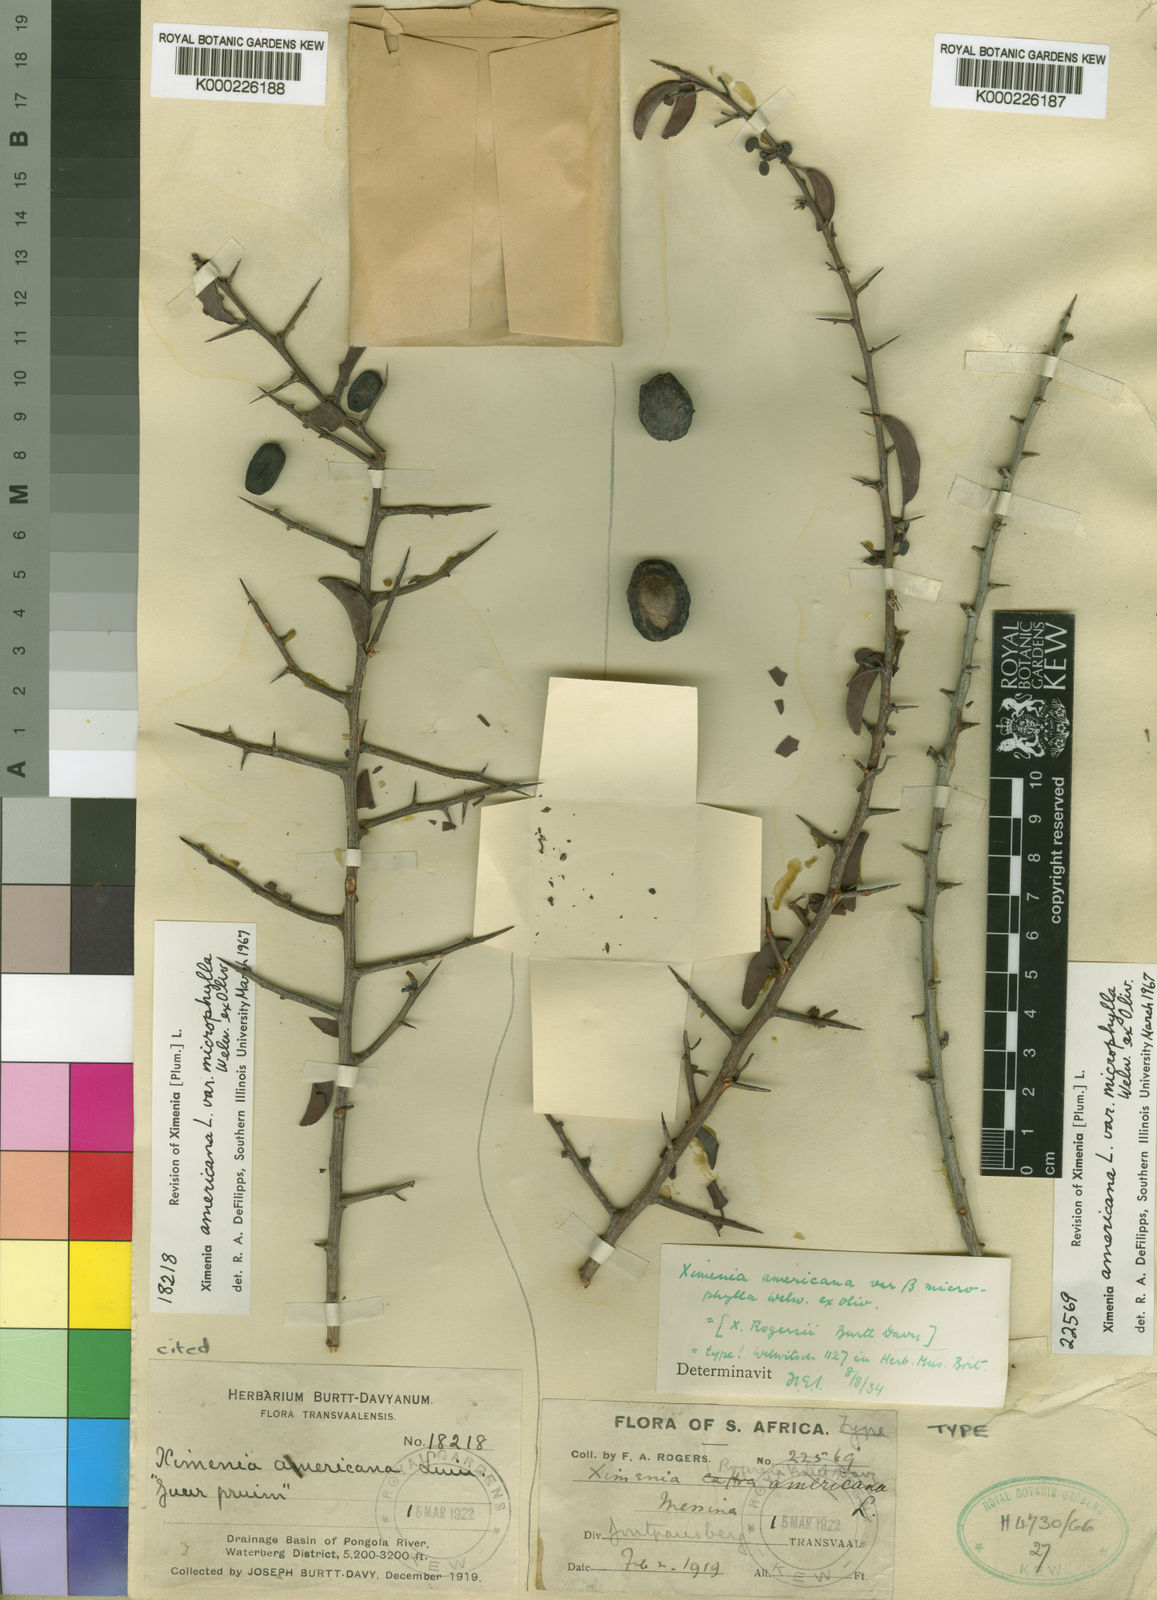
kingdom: Plantae
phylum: Tracheophyta
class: Magnoliopsida
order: Santalales
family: Ximeniaceae
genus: Ximenia
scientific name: Ximenia americana
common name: Tallowwood
